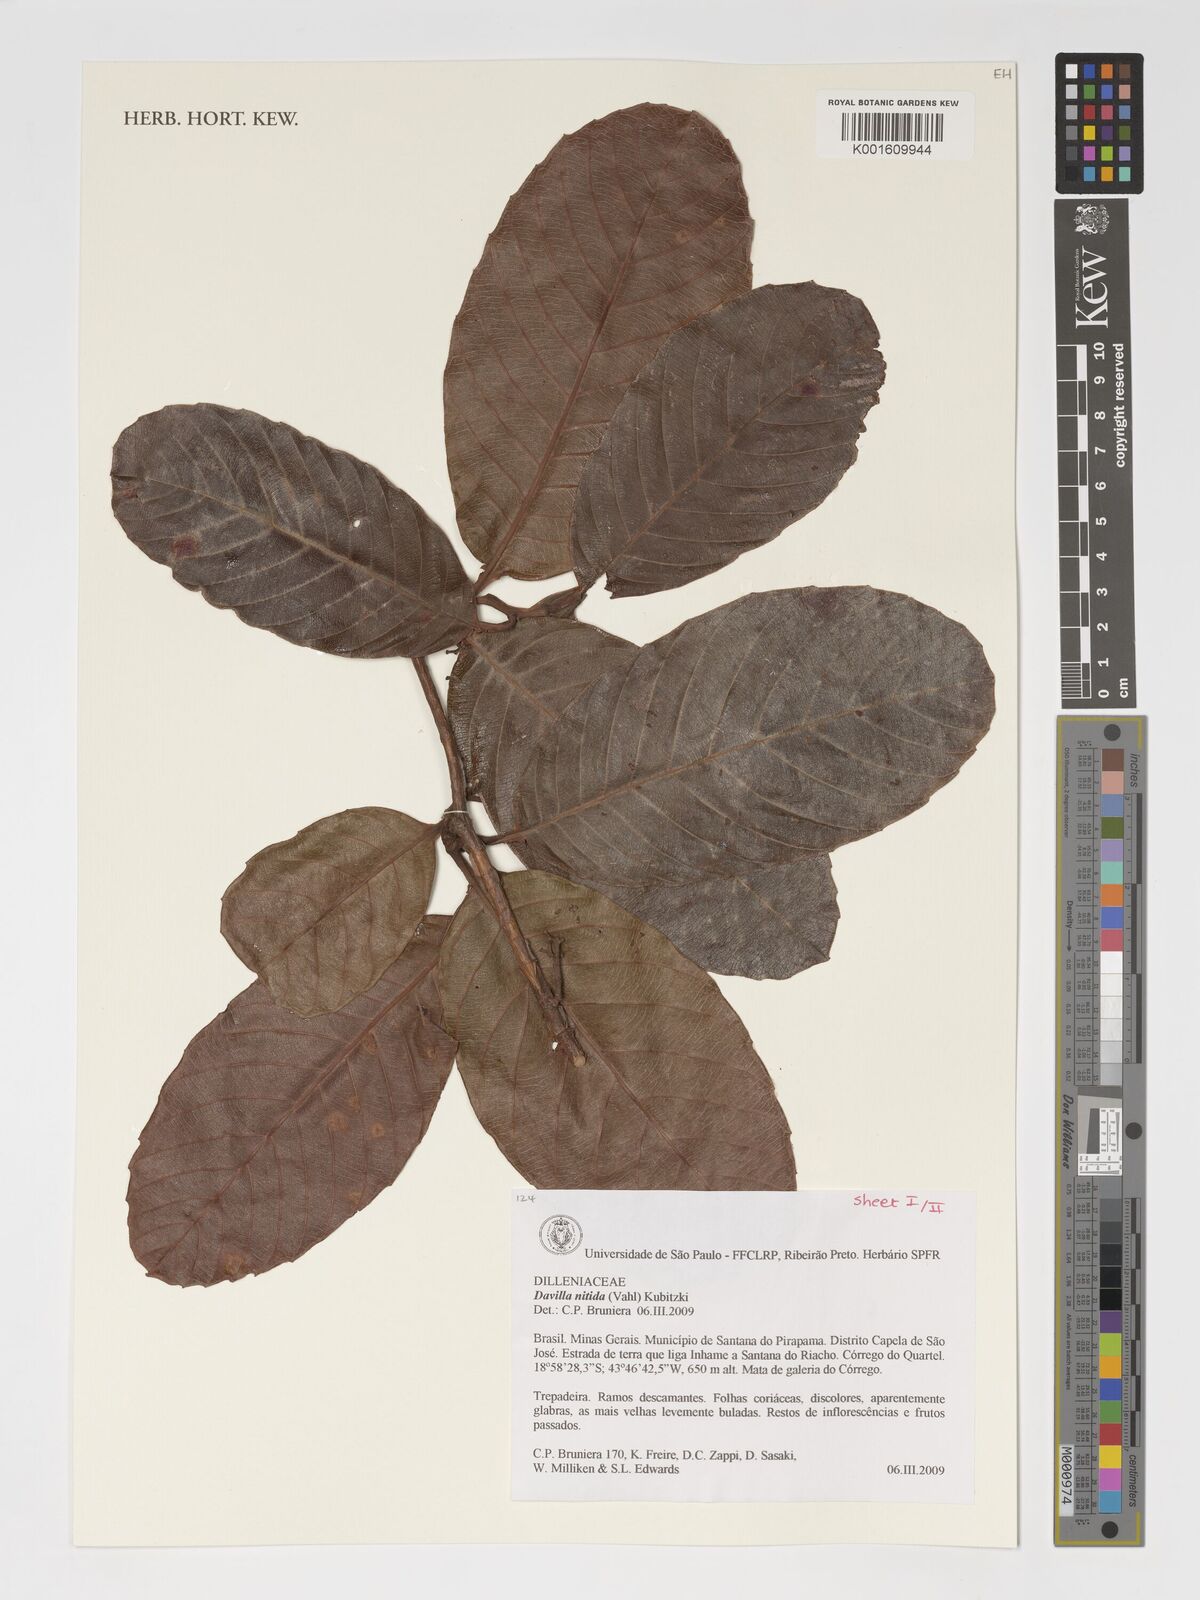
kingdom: Plantae
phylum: Tracheophyta
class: Magnoliopsida
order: Dilleniales
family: Dilleniaceae
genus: Davilla
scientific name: Davilla nitida
